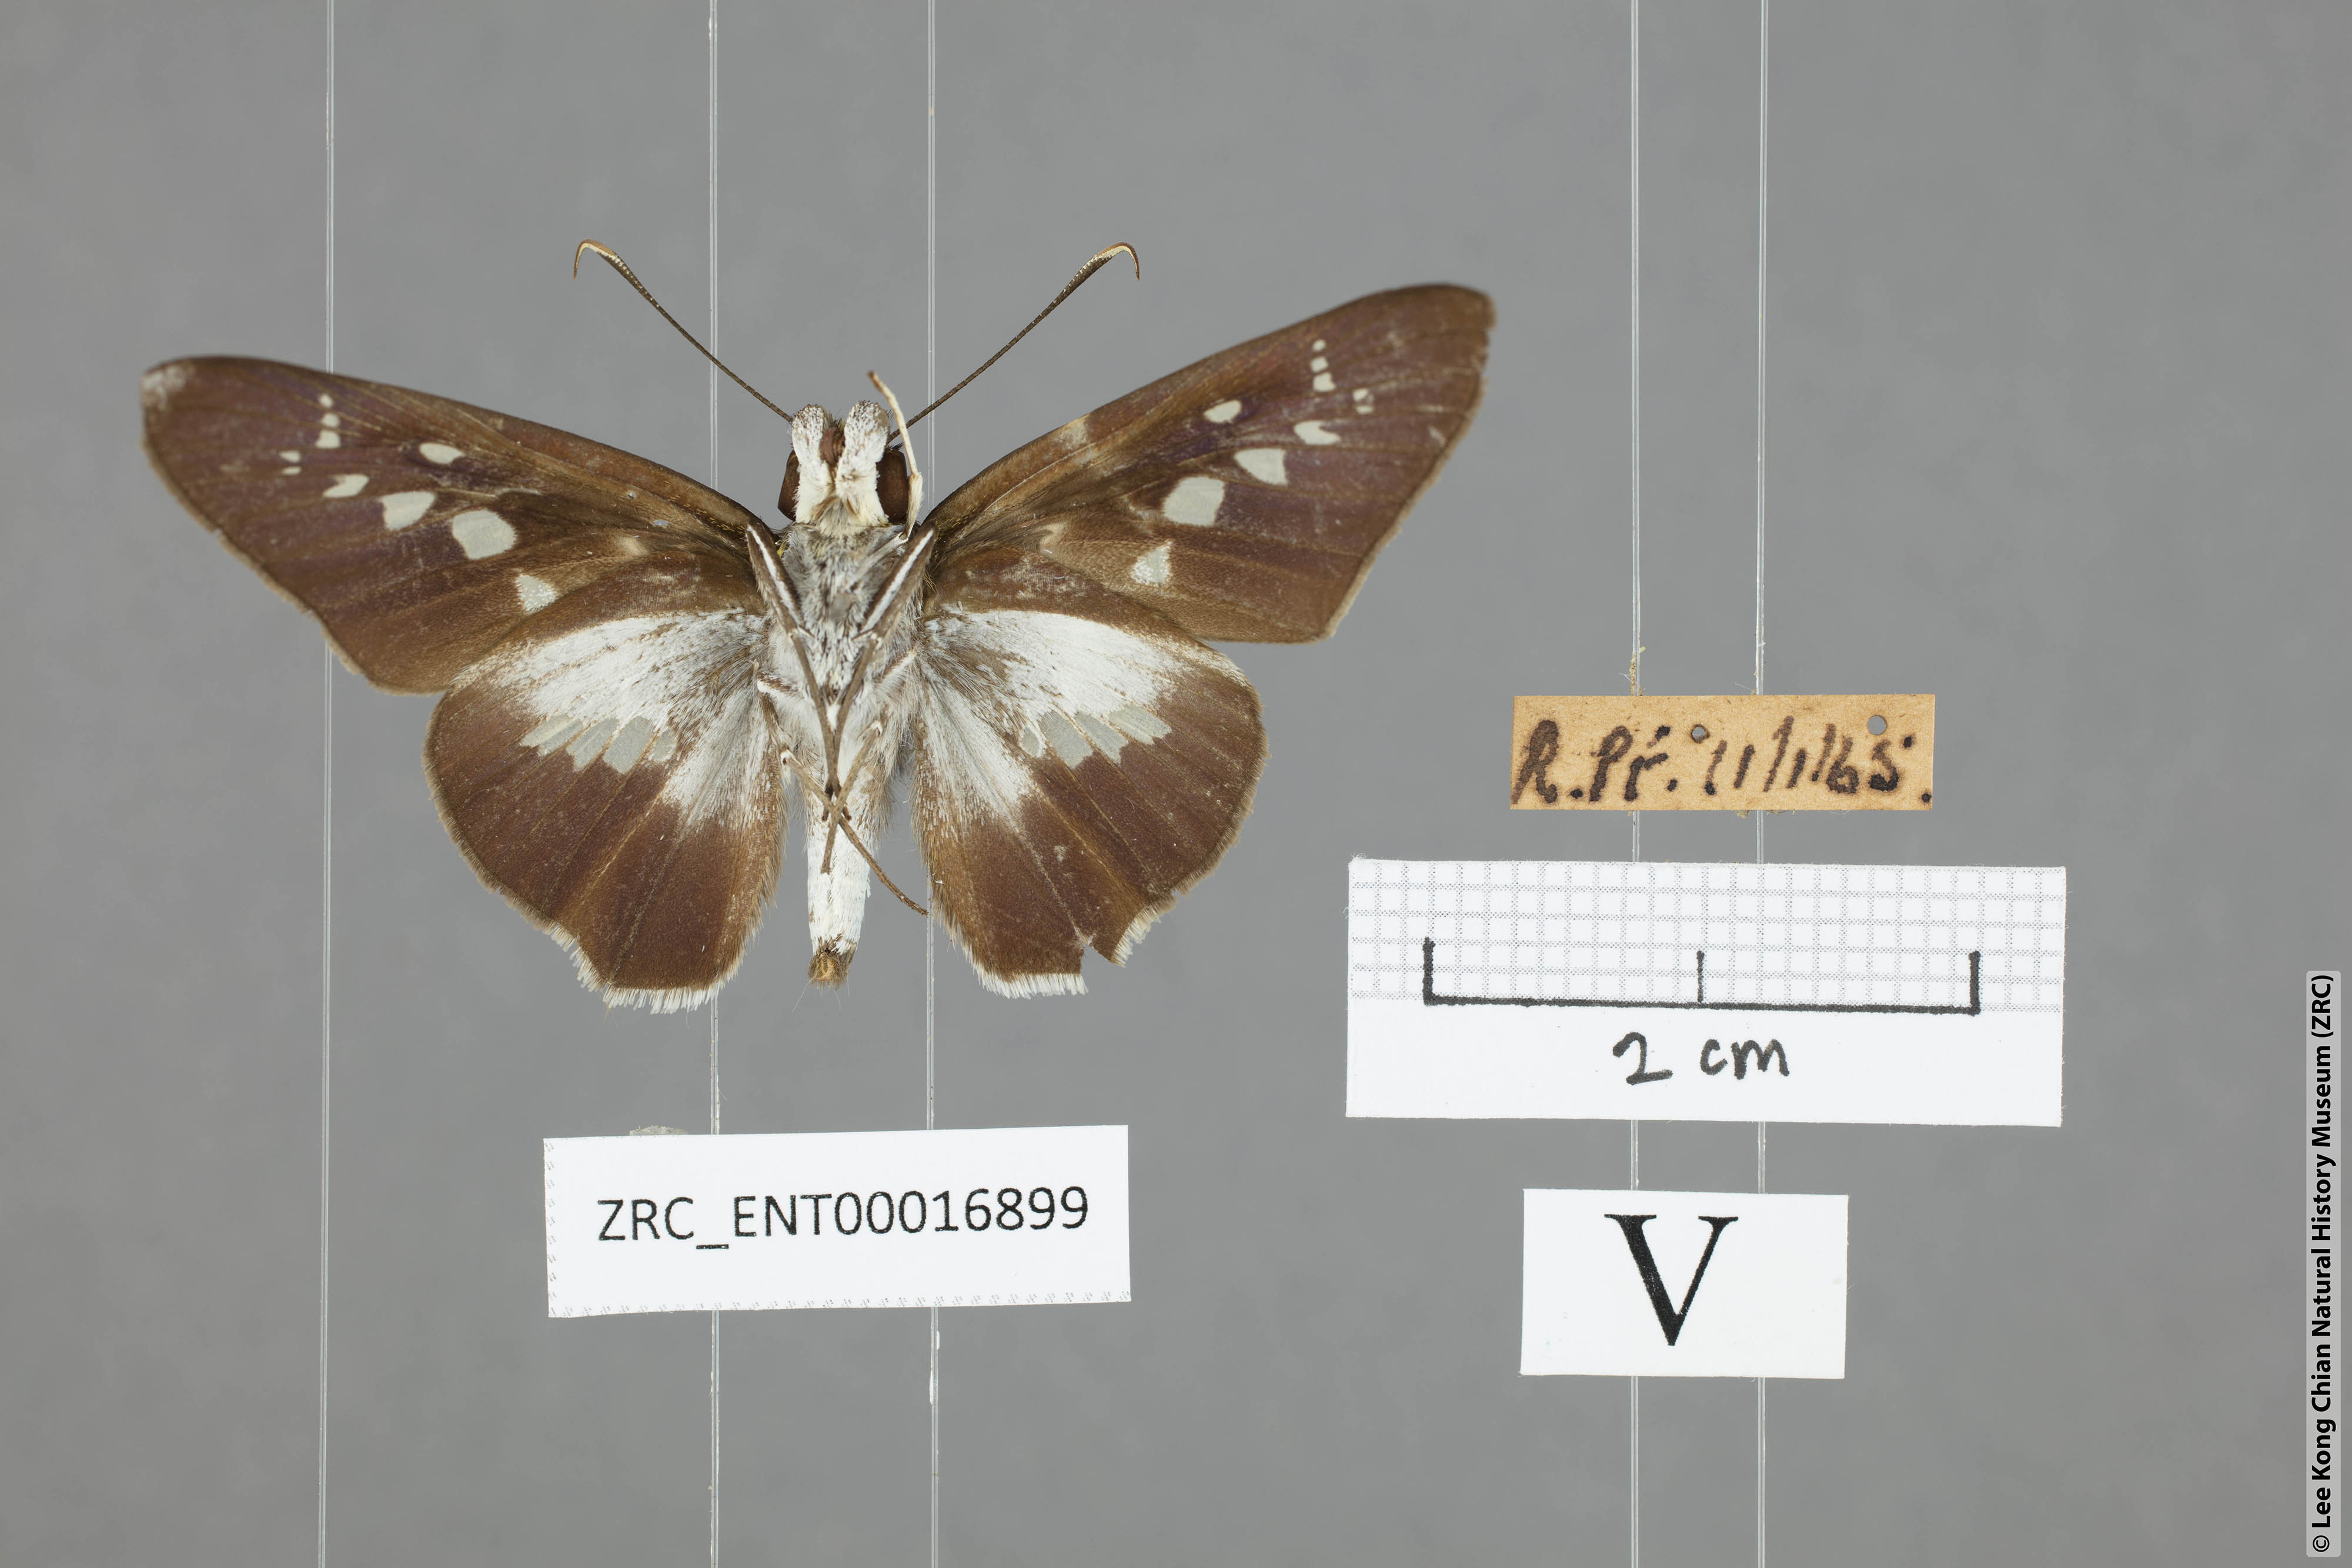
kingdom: Animalia
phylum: Arthropoda
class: Insecta
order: Lepidoptera
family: Hesperiidae
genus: Eetion
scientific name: Eetion elia
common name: White spotted palmer
